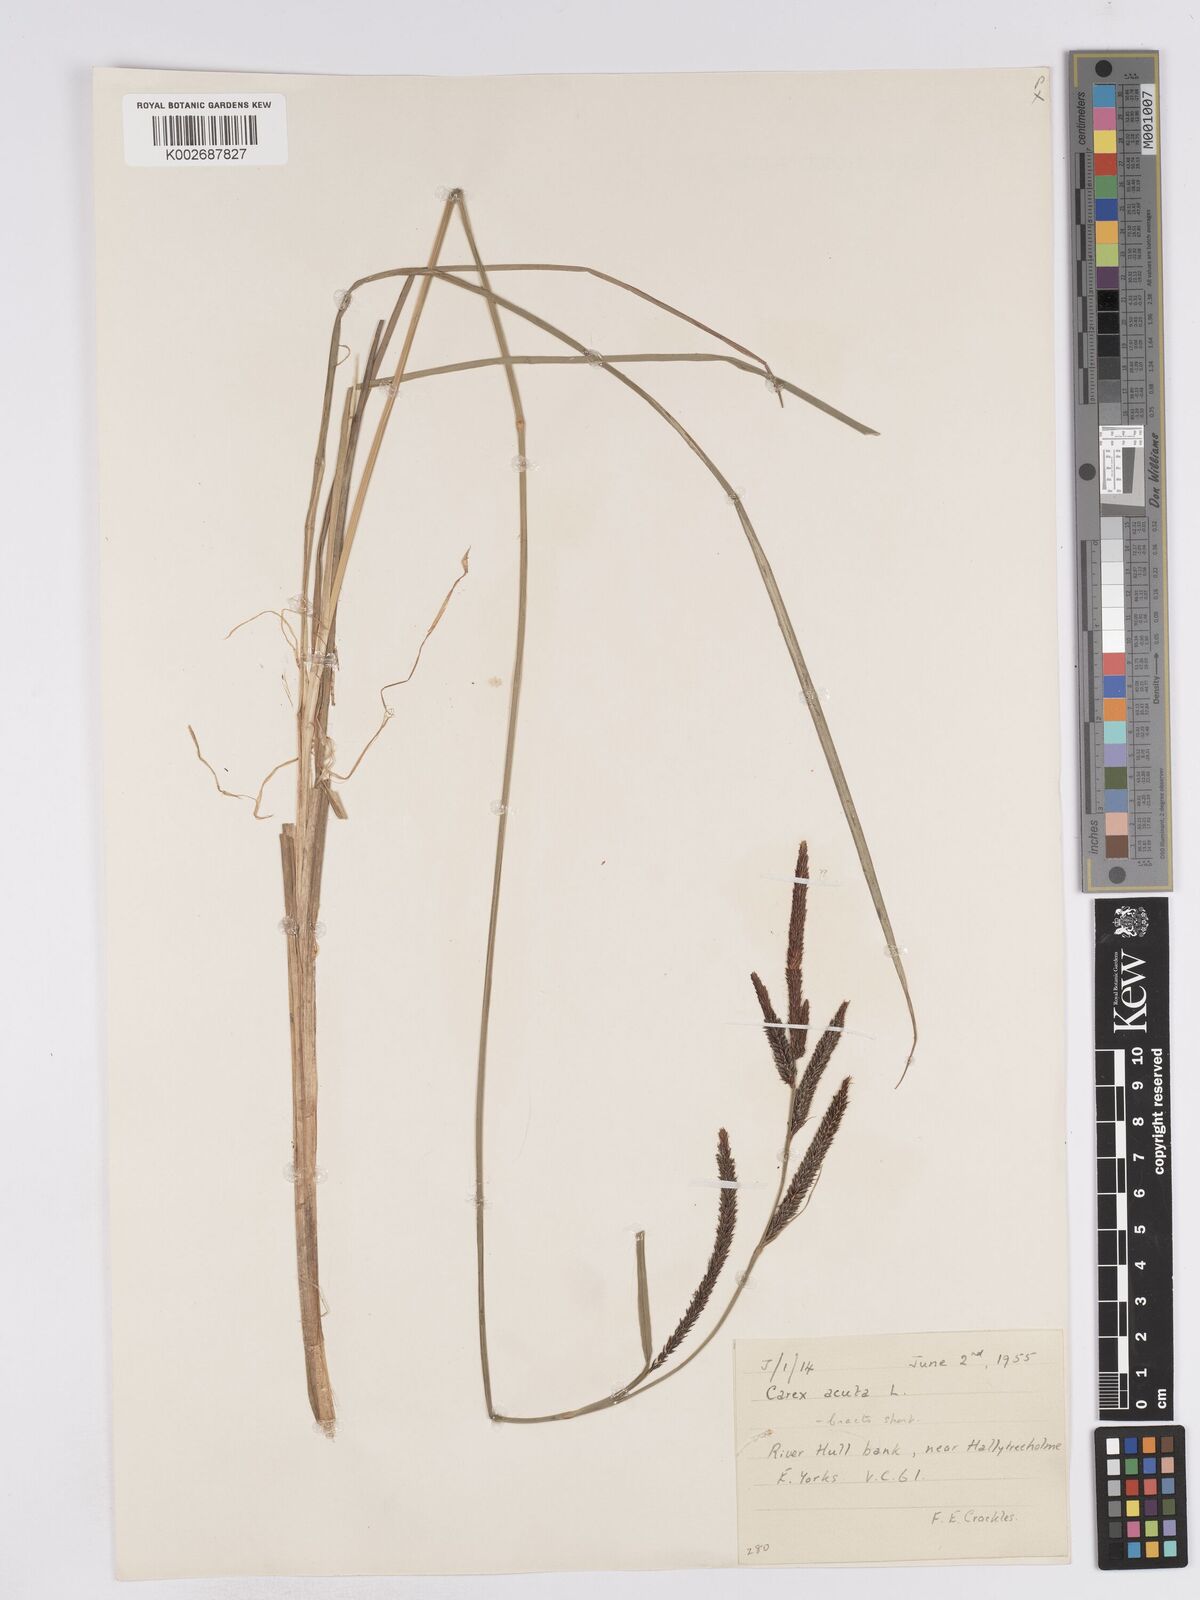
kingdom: Plantae
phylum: Tracheophyta
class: Liliopsida
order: Poales
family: Cyperaceae
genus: Carex
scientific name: Carex acuta
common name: Slender tufted-sedge
